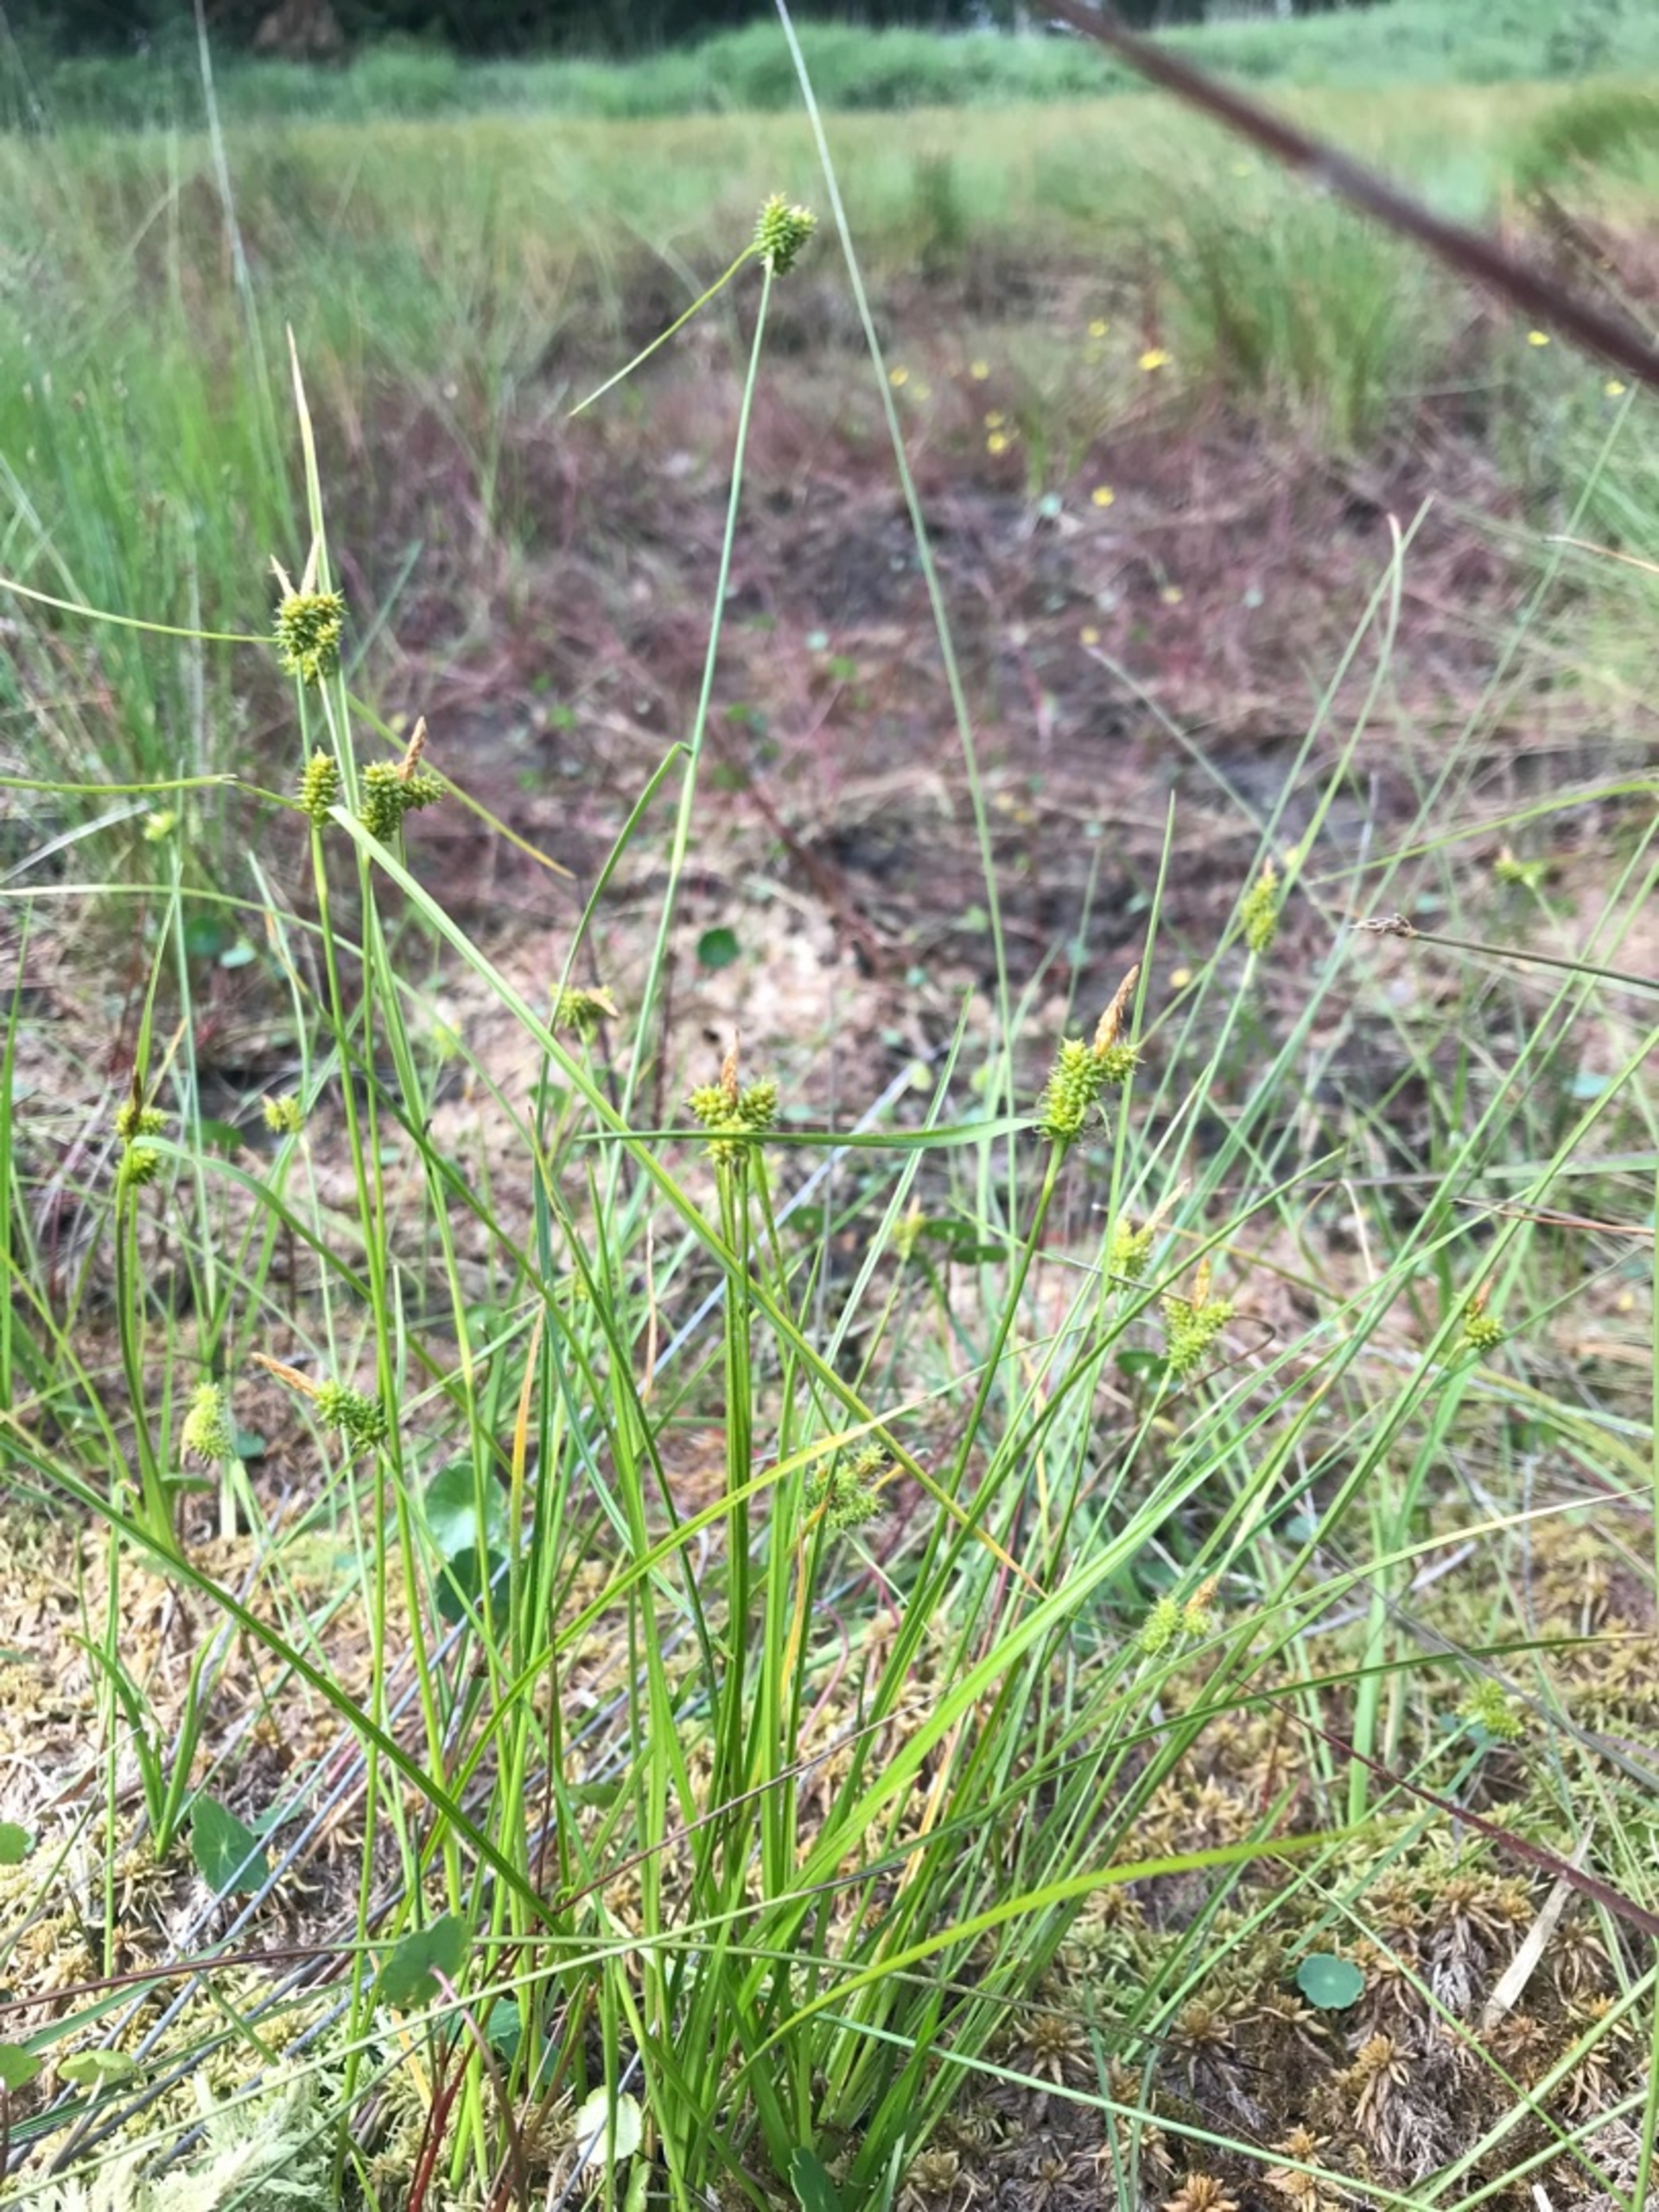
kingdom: Plantae
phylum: Tracheophyta
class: Liliopsida
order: Poales
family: Cyperaceae
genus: Carex
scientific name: Carex oederi
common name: Høst-star
